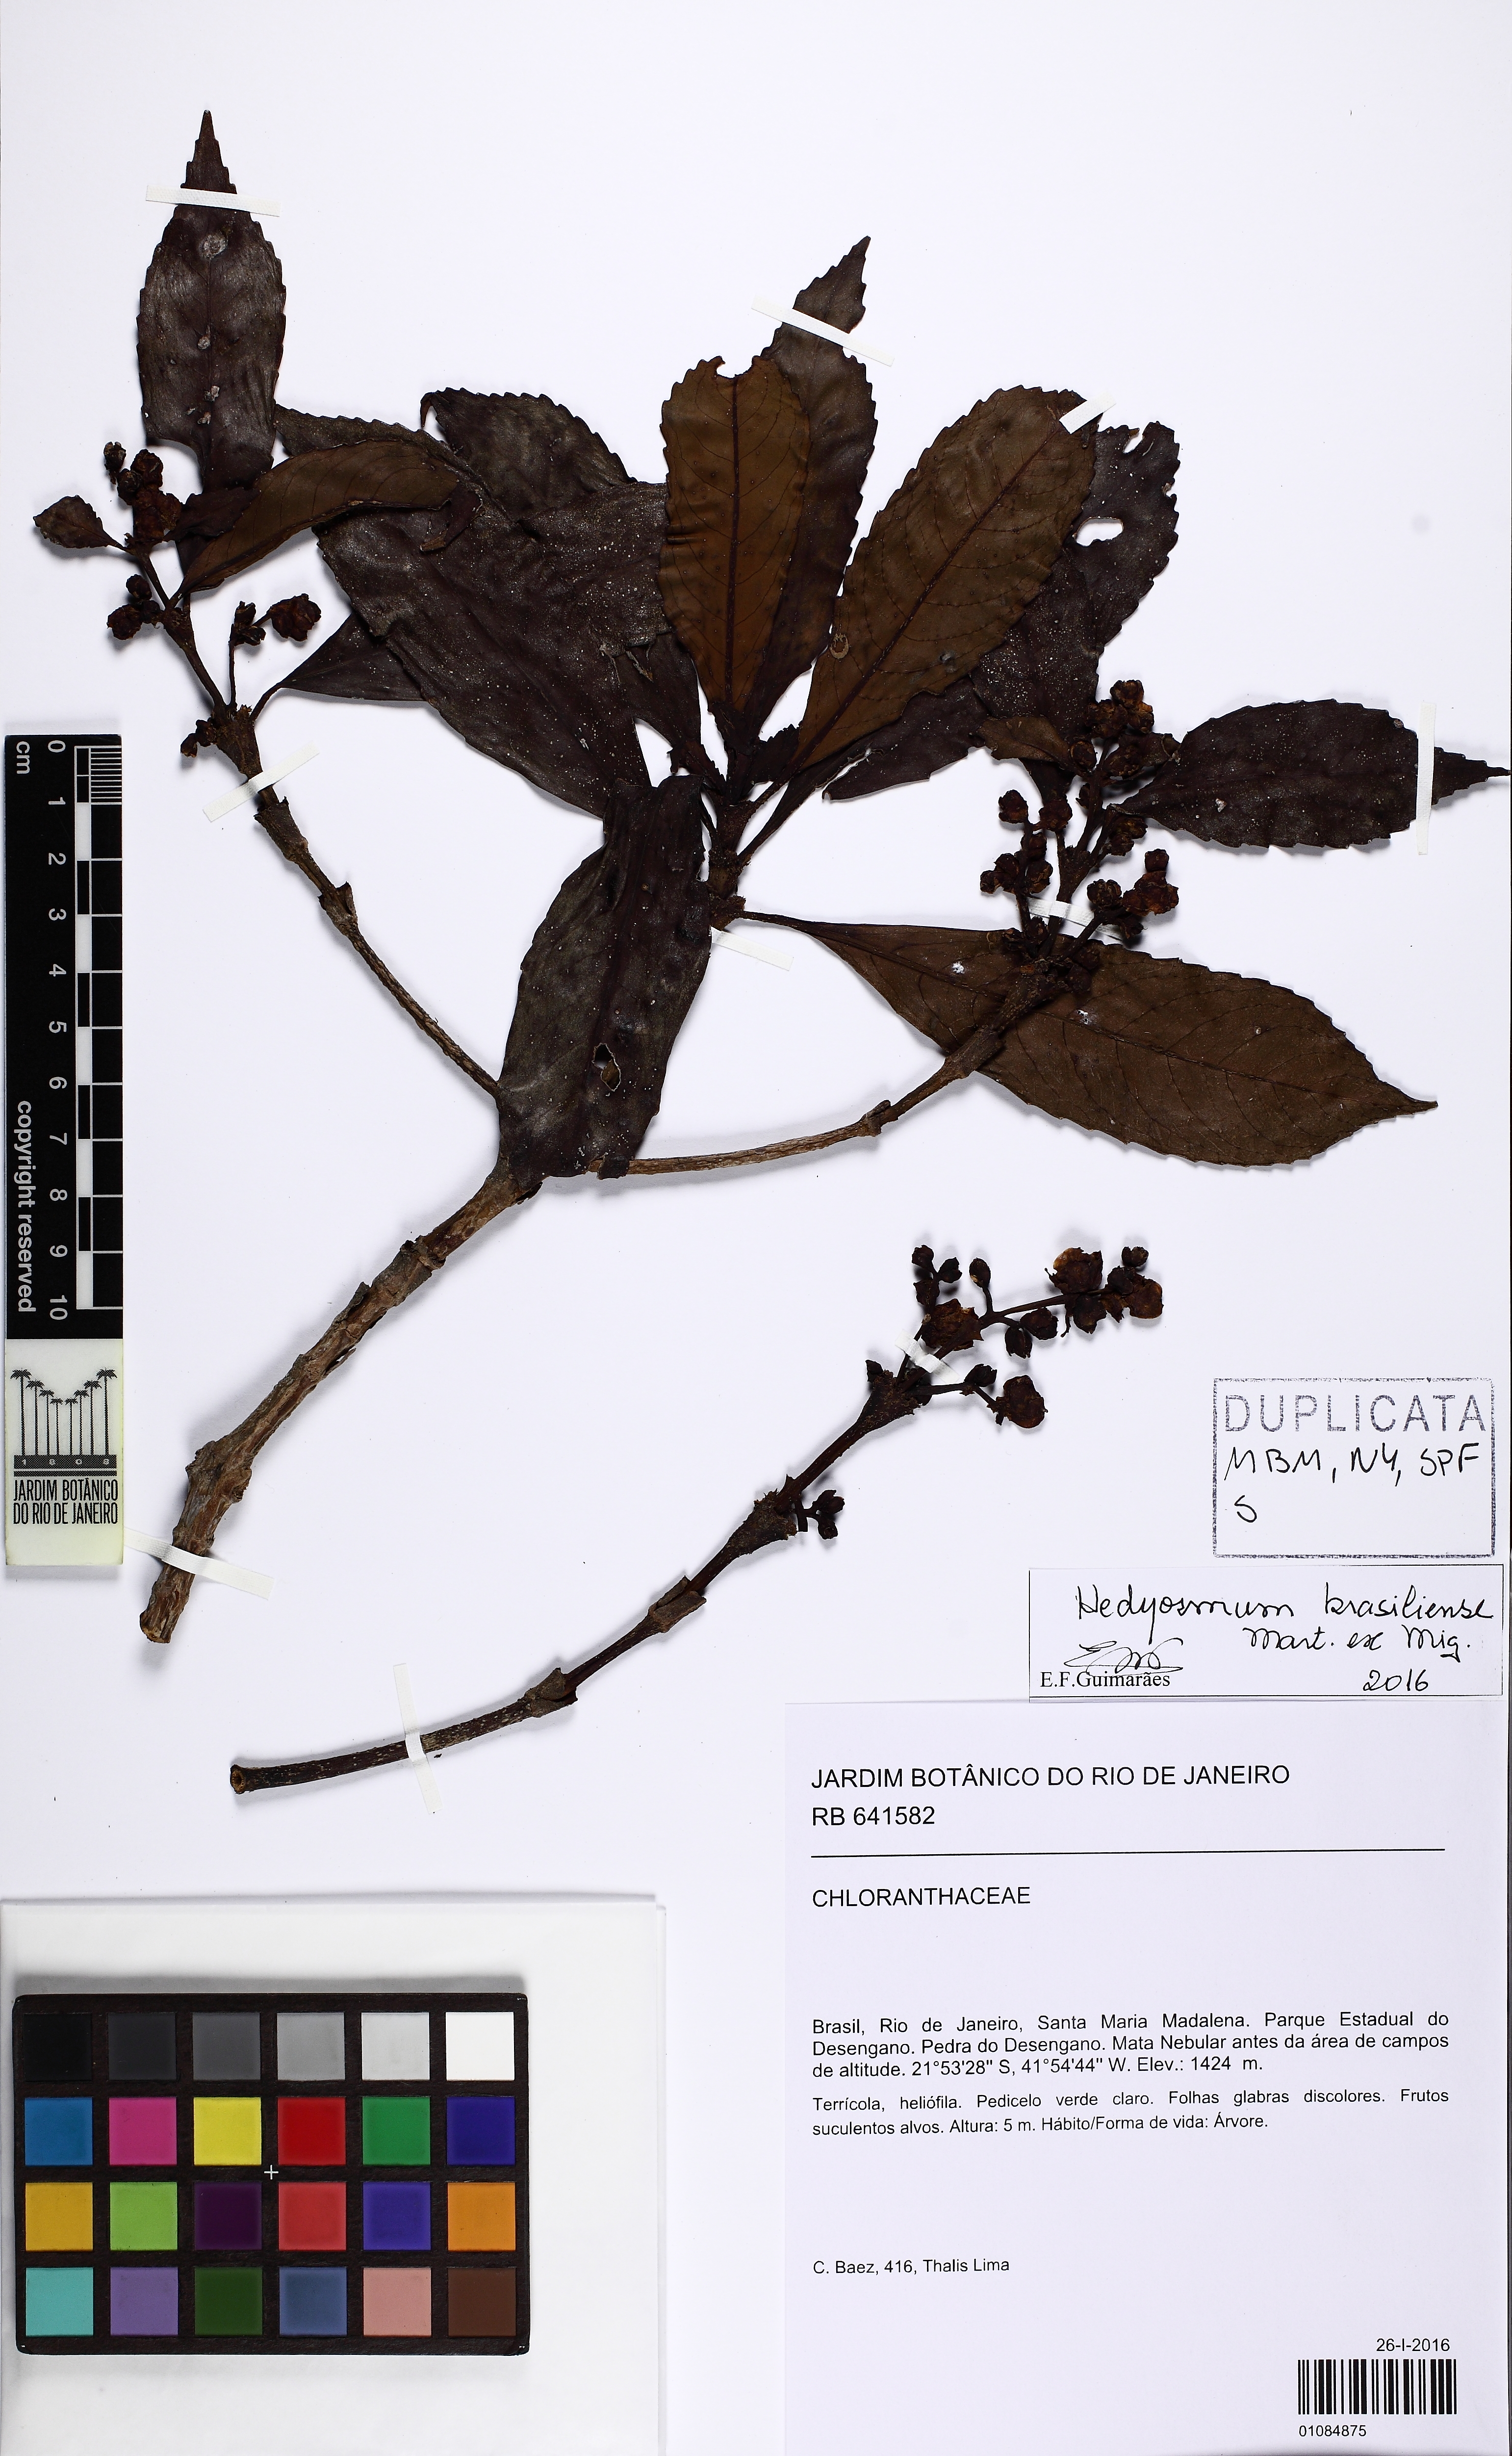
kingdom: Plantae
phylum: Tracheophyta
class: Magnoliopsida
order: Chloranthales
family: Chloranthaceae
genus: Hedyosmum
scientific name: Hedyosmum brasiliense
